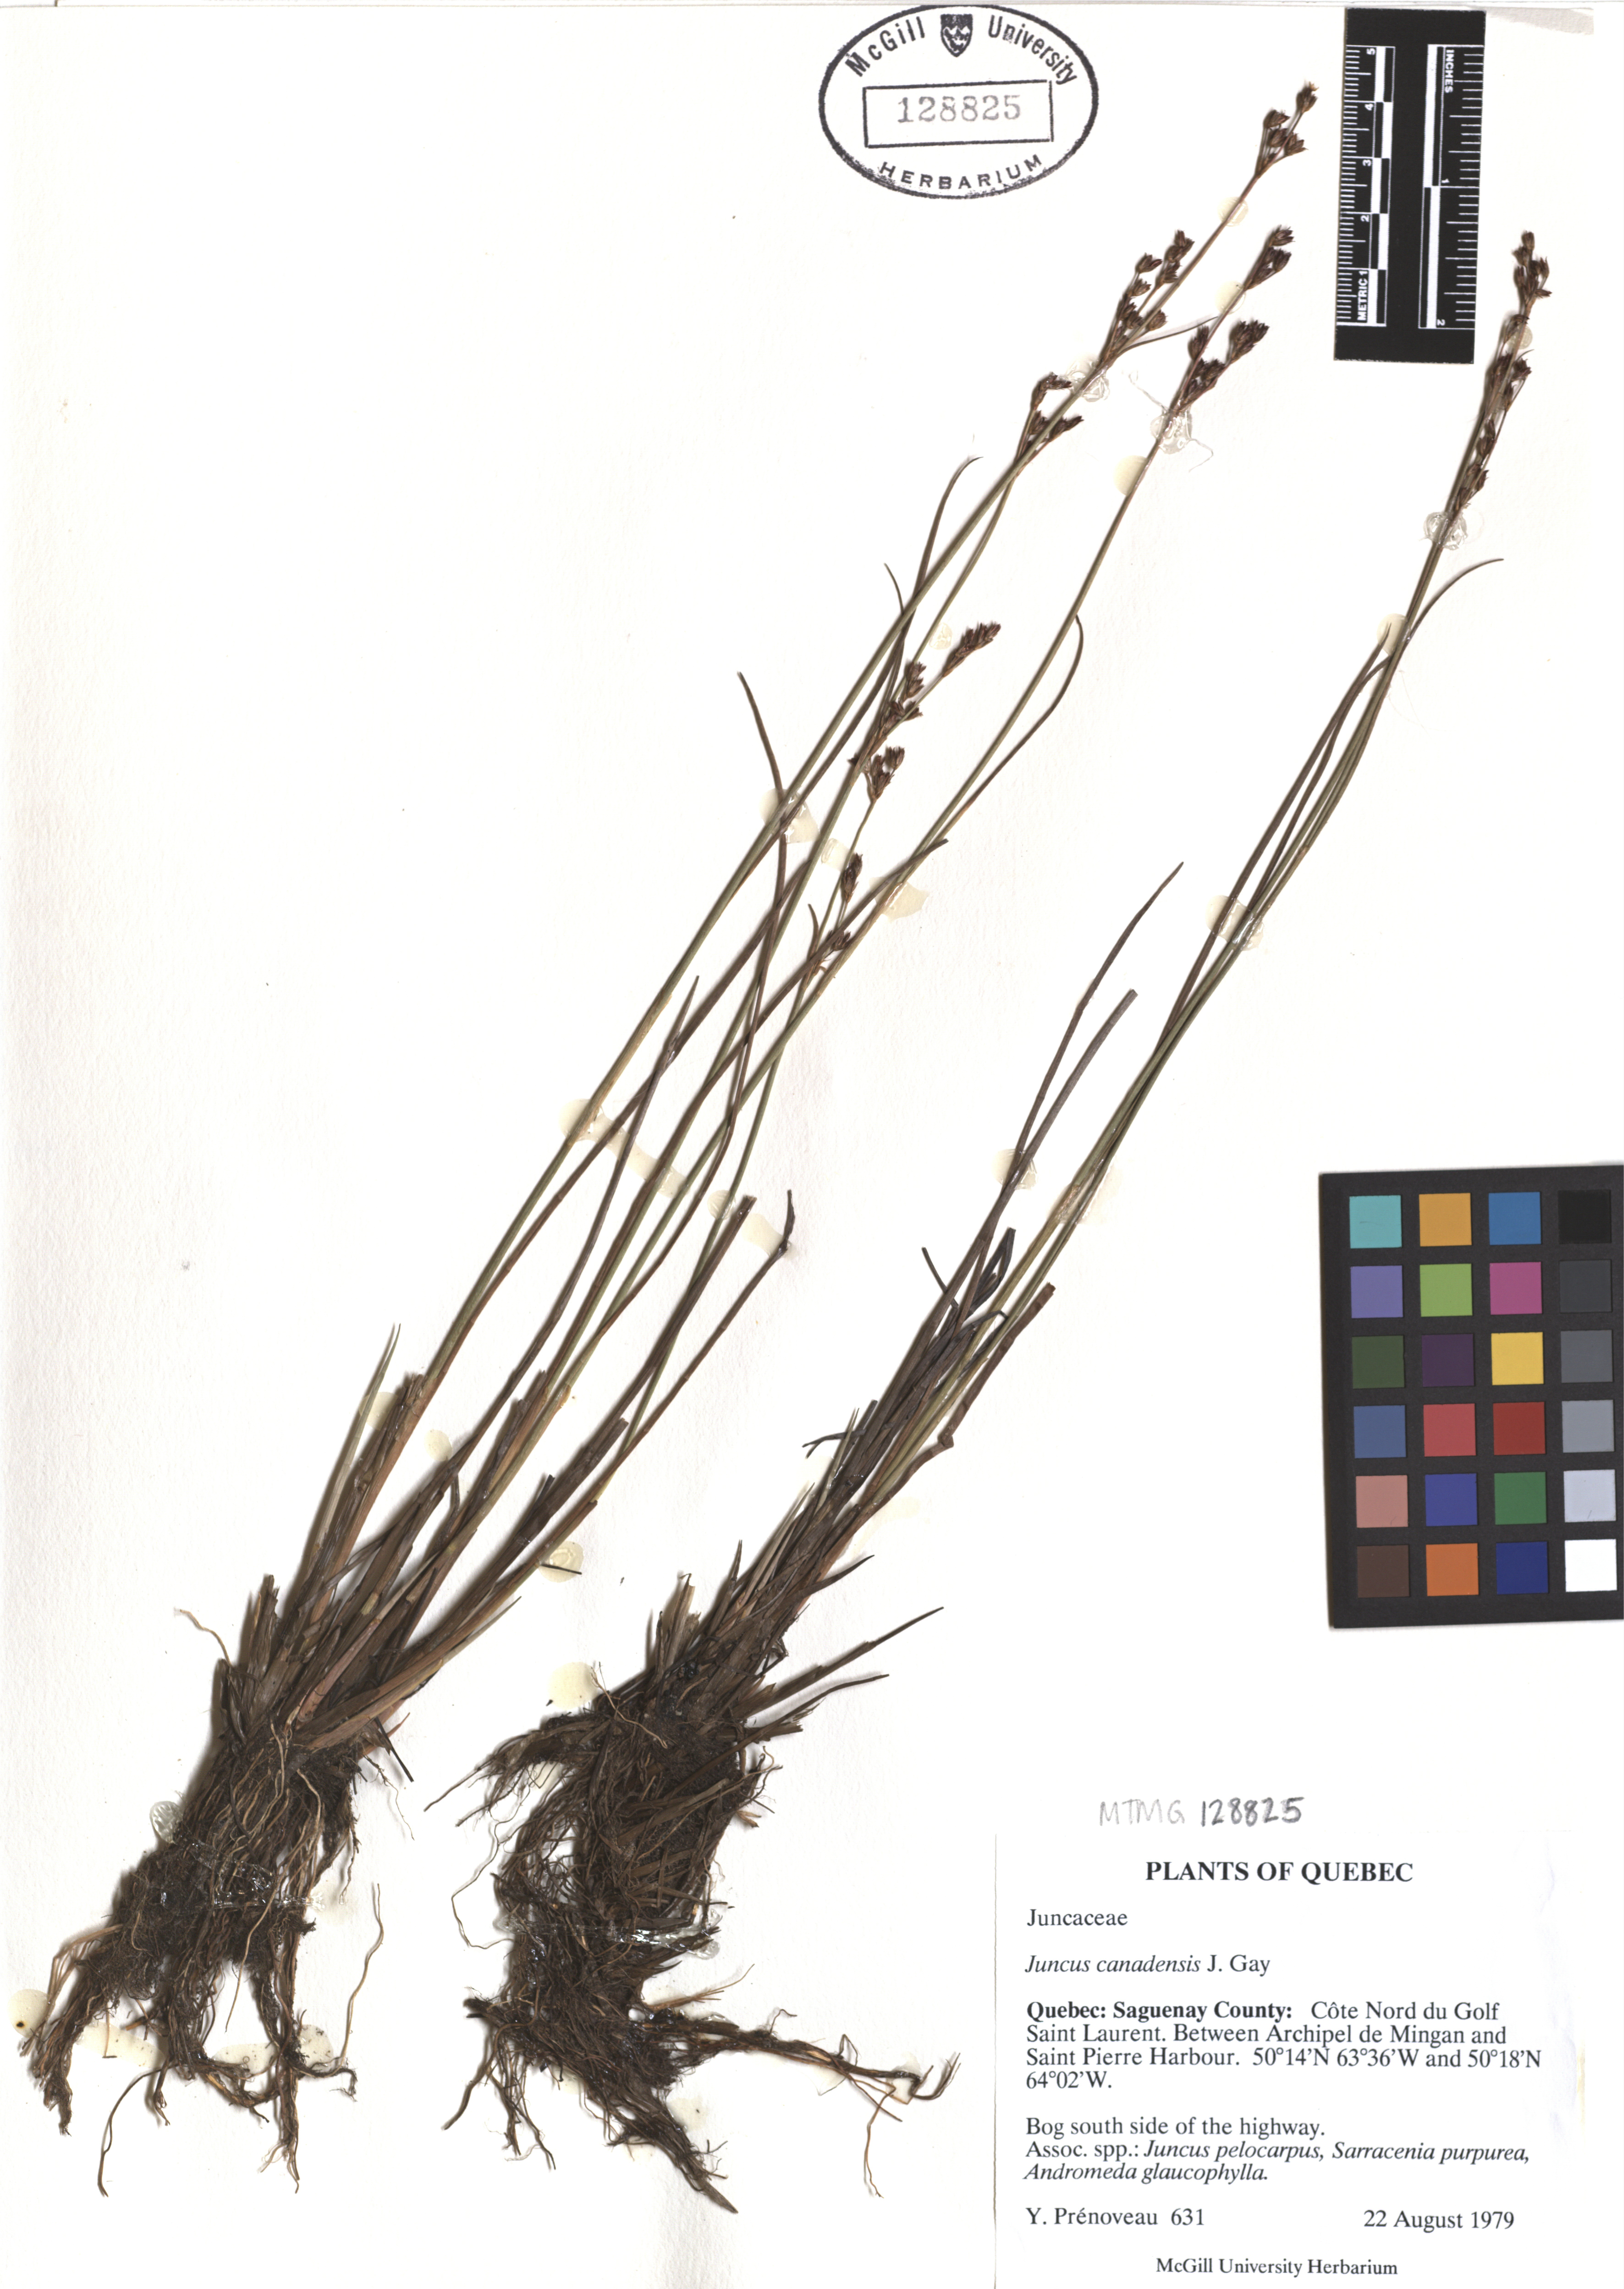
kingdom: Plantae
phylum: Tracheophyta
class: Liliopsida
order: Poales
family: Juncaceae
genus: Juncus
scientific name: Juncus canadensis
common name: Canada rush
